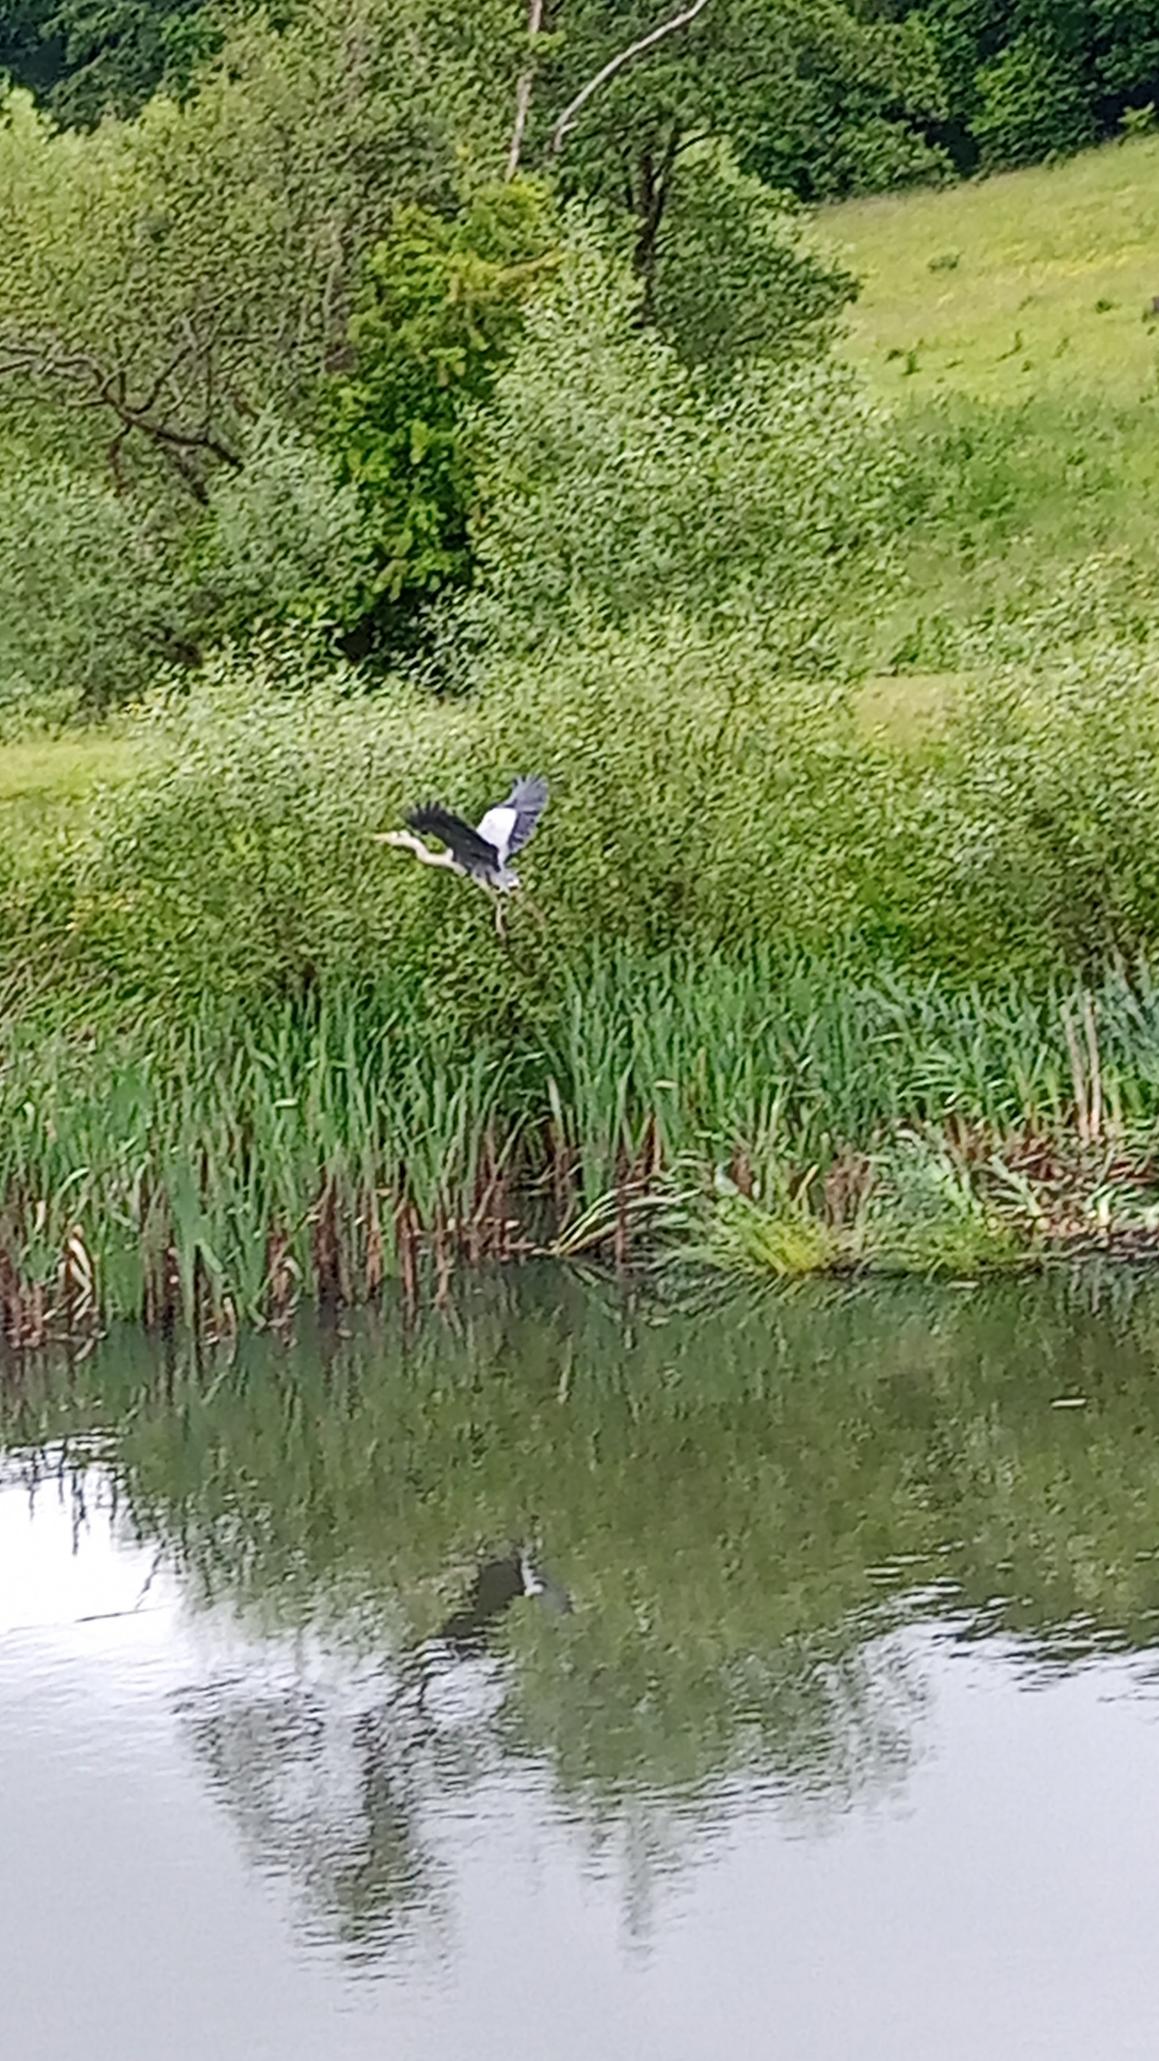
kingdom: Animalia
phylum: Chordata
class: Aves
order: Pelecaniformes
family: Ardeidae
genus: Ardea
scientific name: Ardea cinerea
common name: Fiskehejre
